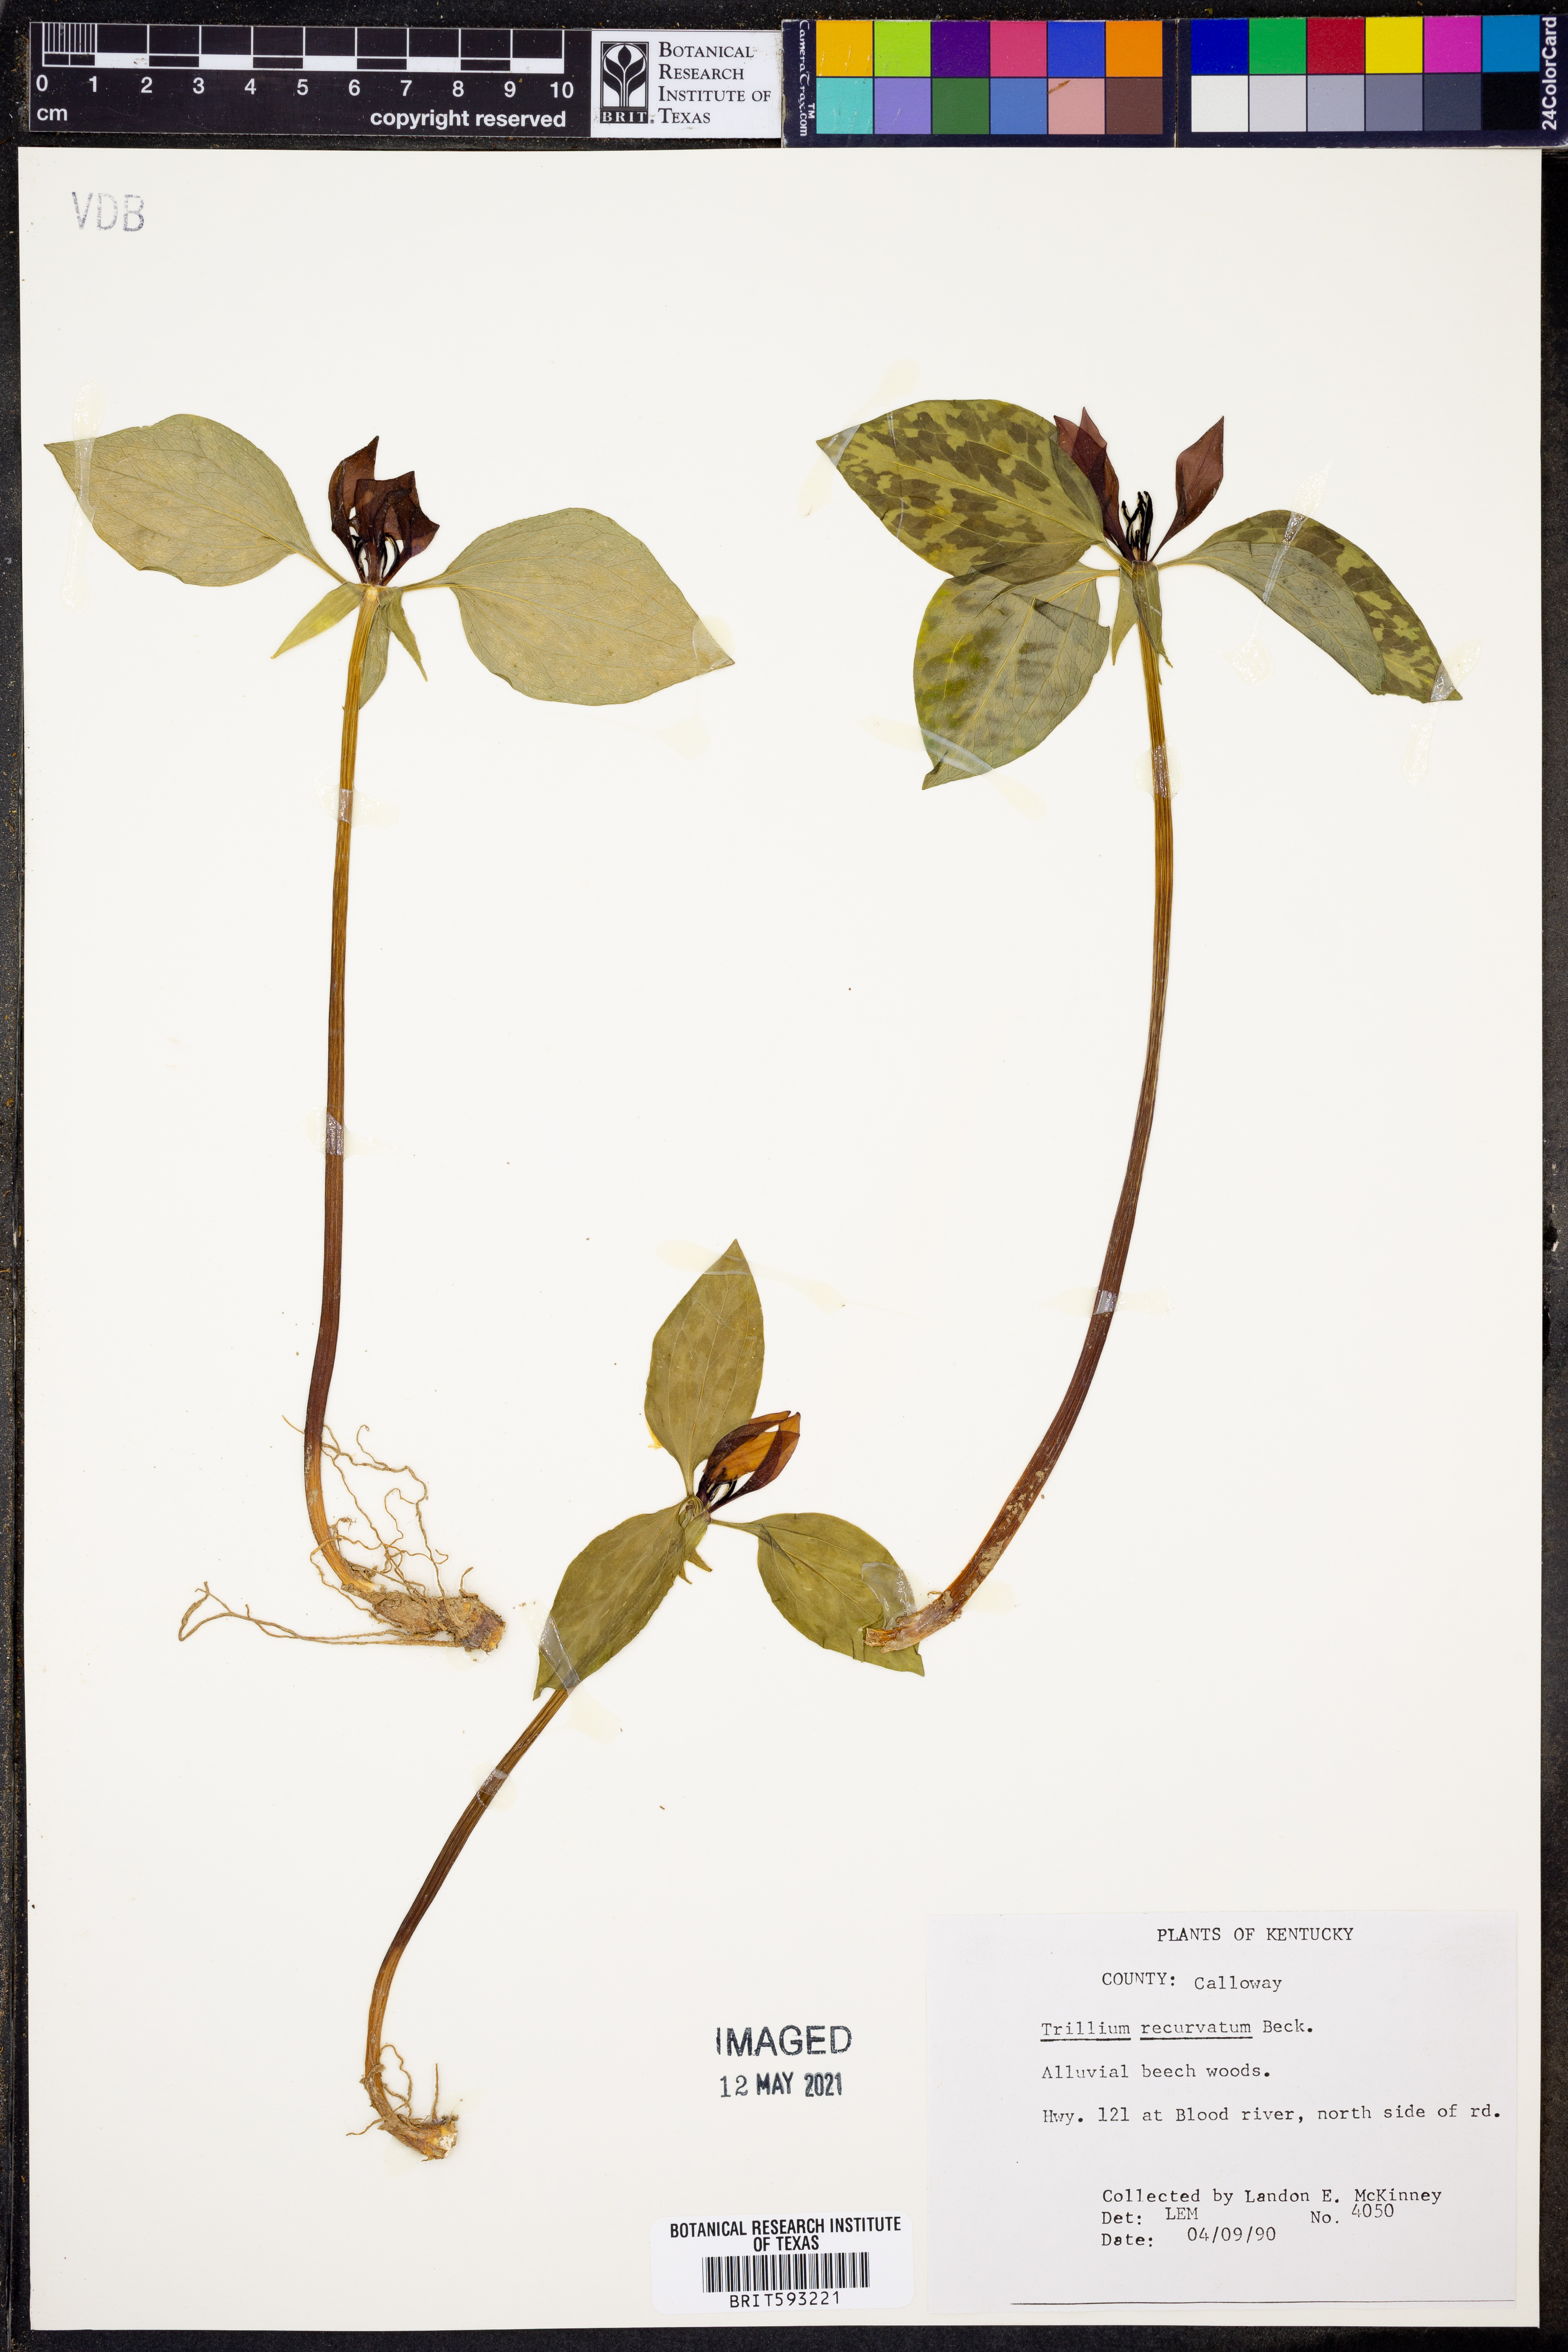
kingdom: Plantae
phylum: Tracheophyta
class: Liliopsida
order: Liliales
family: Melanthiaceae
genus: Trillium
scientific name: Trillium recurvatum
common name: Bloody butcher
